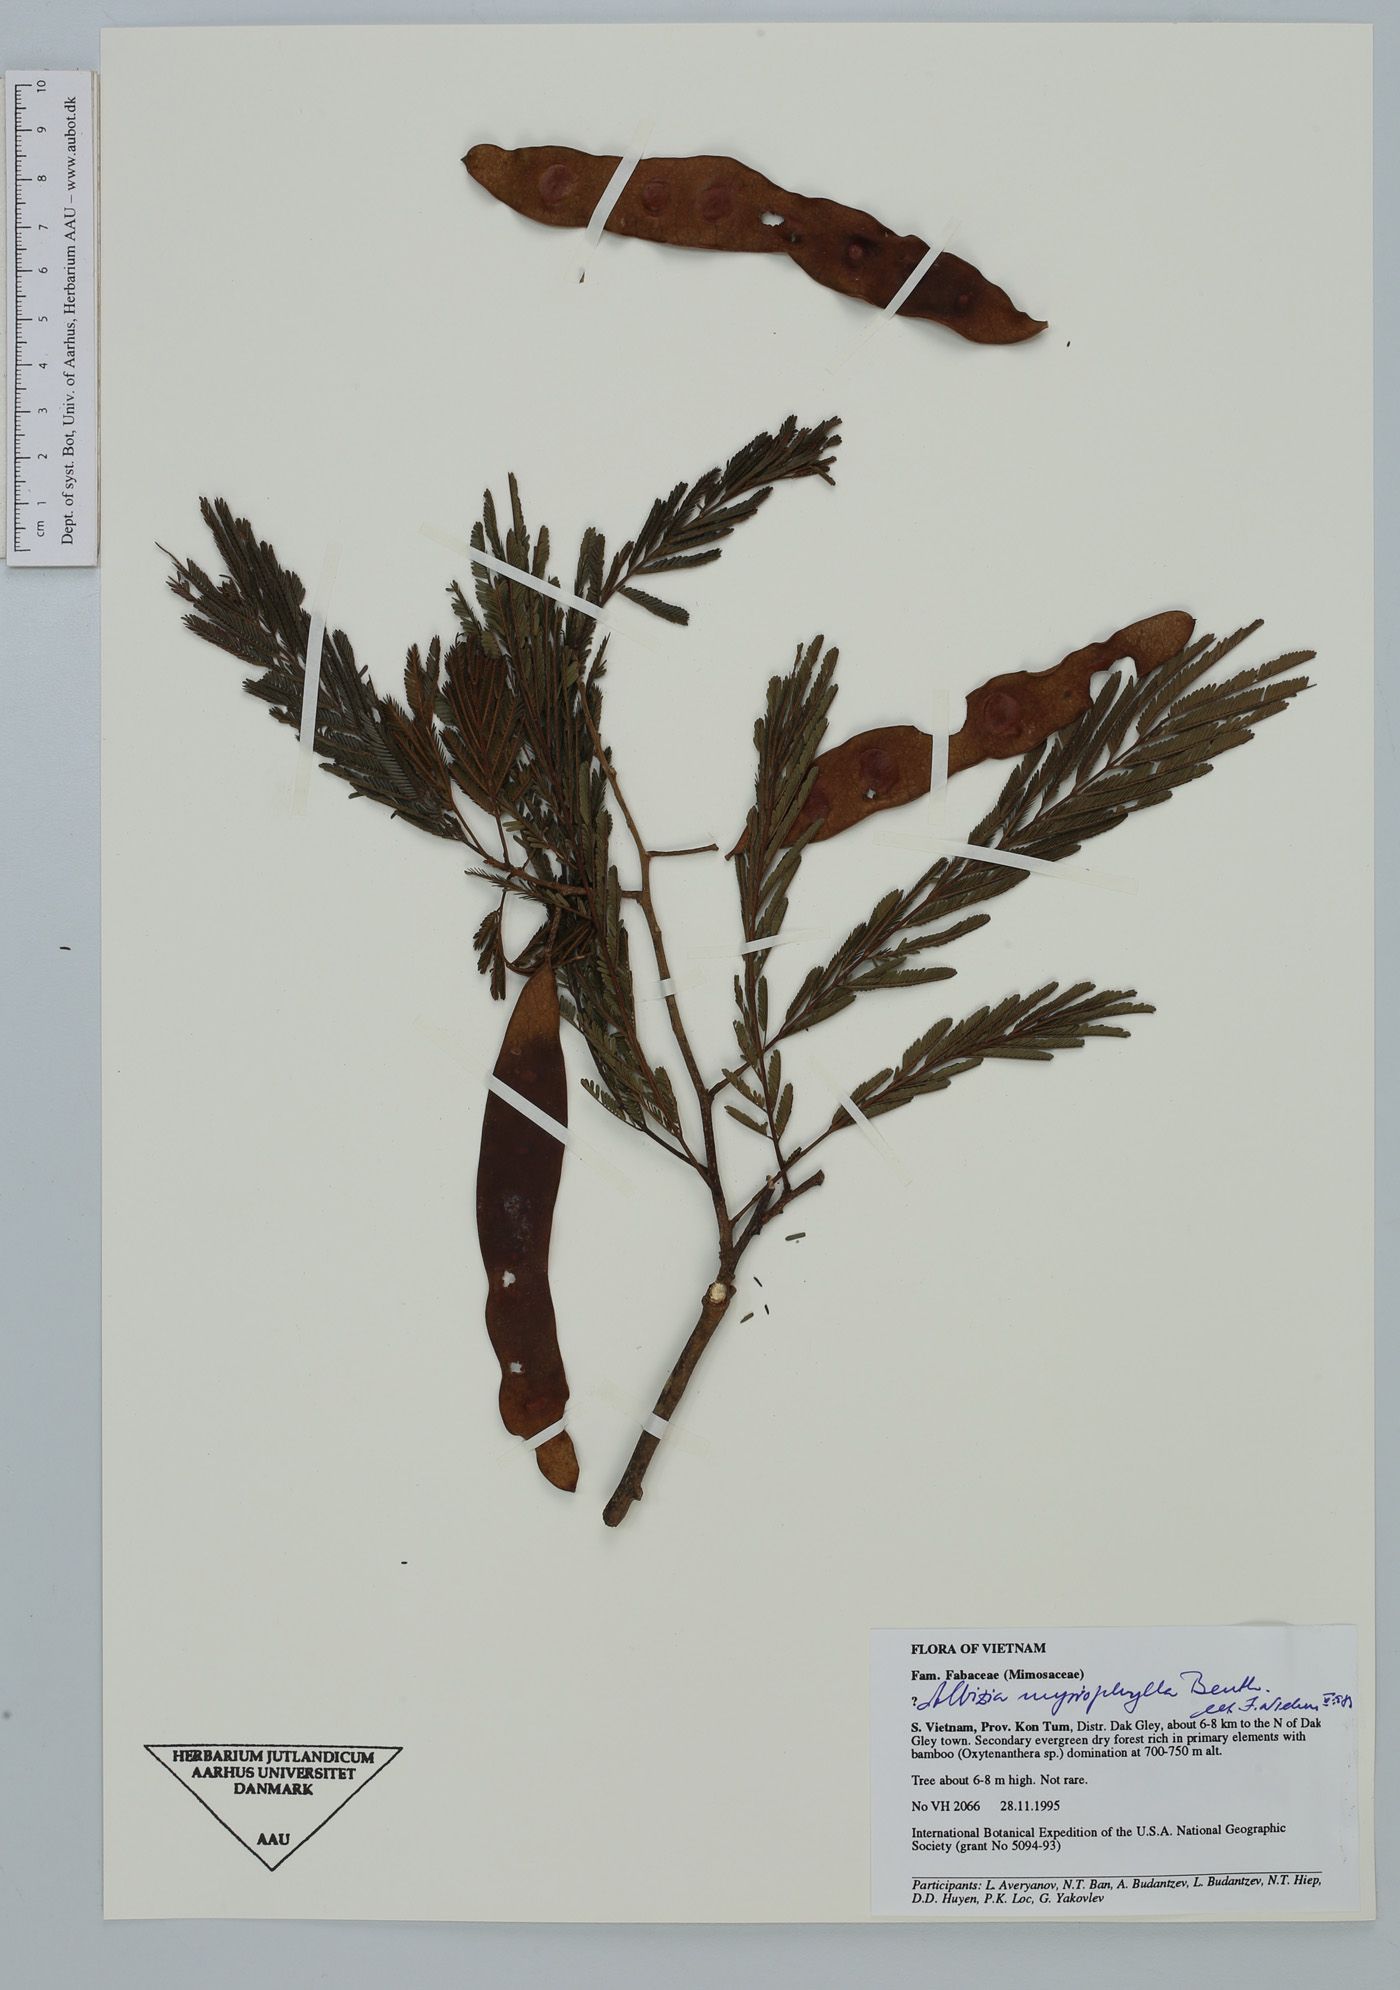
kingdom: Plantae
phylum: Tracheophyta
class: Magnoliopsida
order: Fabales
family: Fabaceae
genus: Albizia
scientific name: Albizia myriophylla
